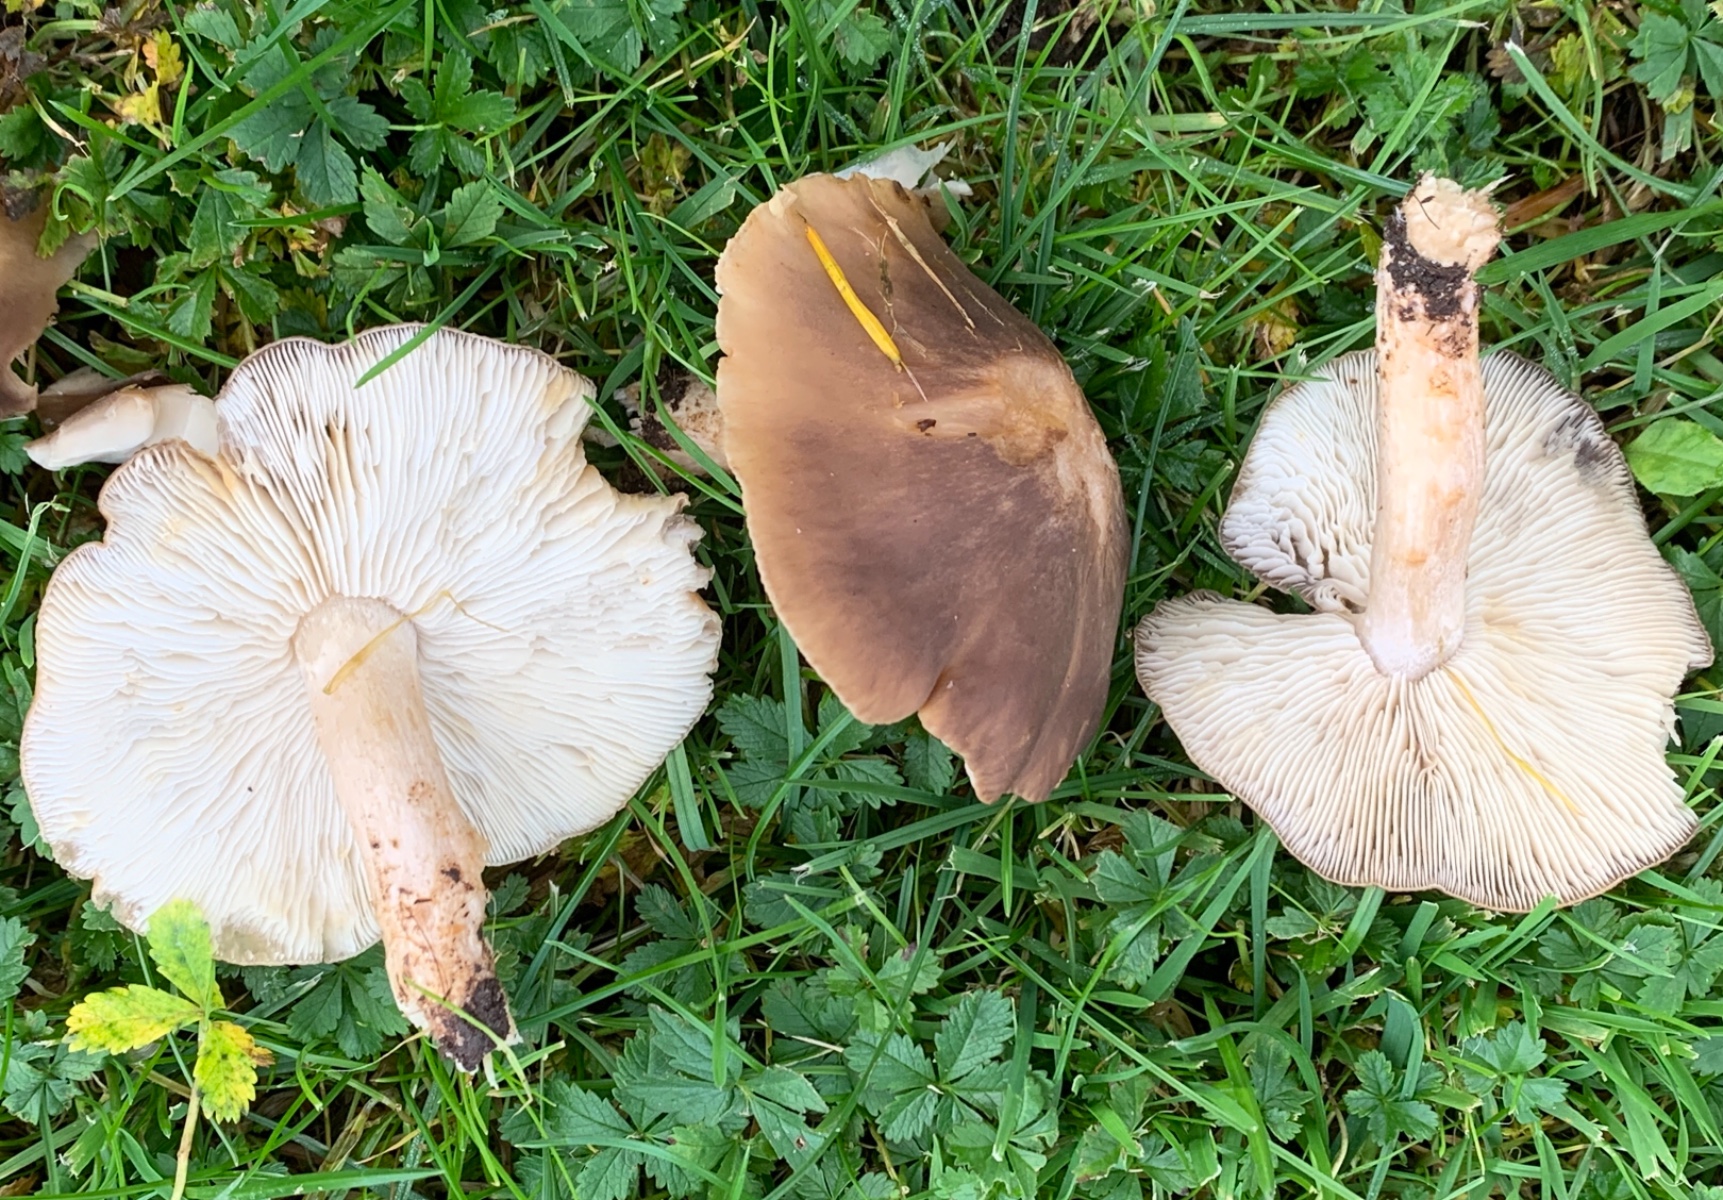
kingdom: Fungi
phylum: Basidiomycota
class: Agaricomycetes
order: Agaricales
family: Lyophyllaceae
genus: Lyophyllum
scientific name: Lyophyllum decastes
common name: røggrå gråblad
